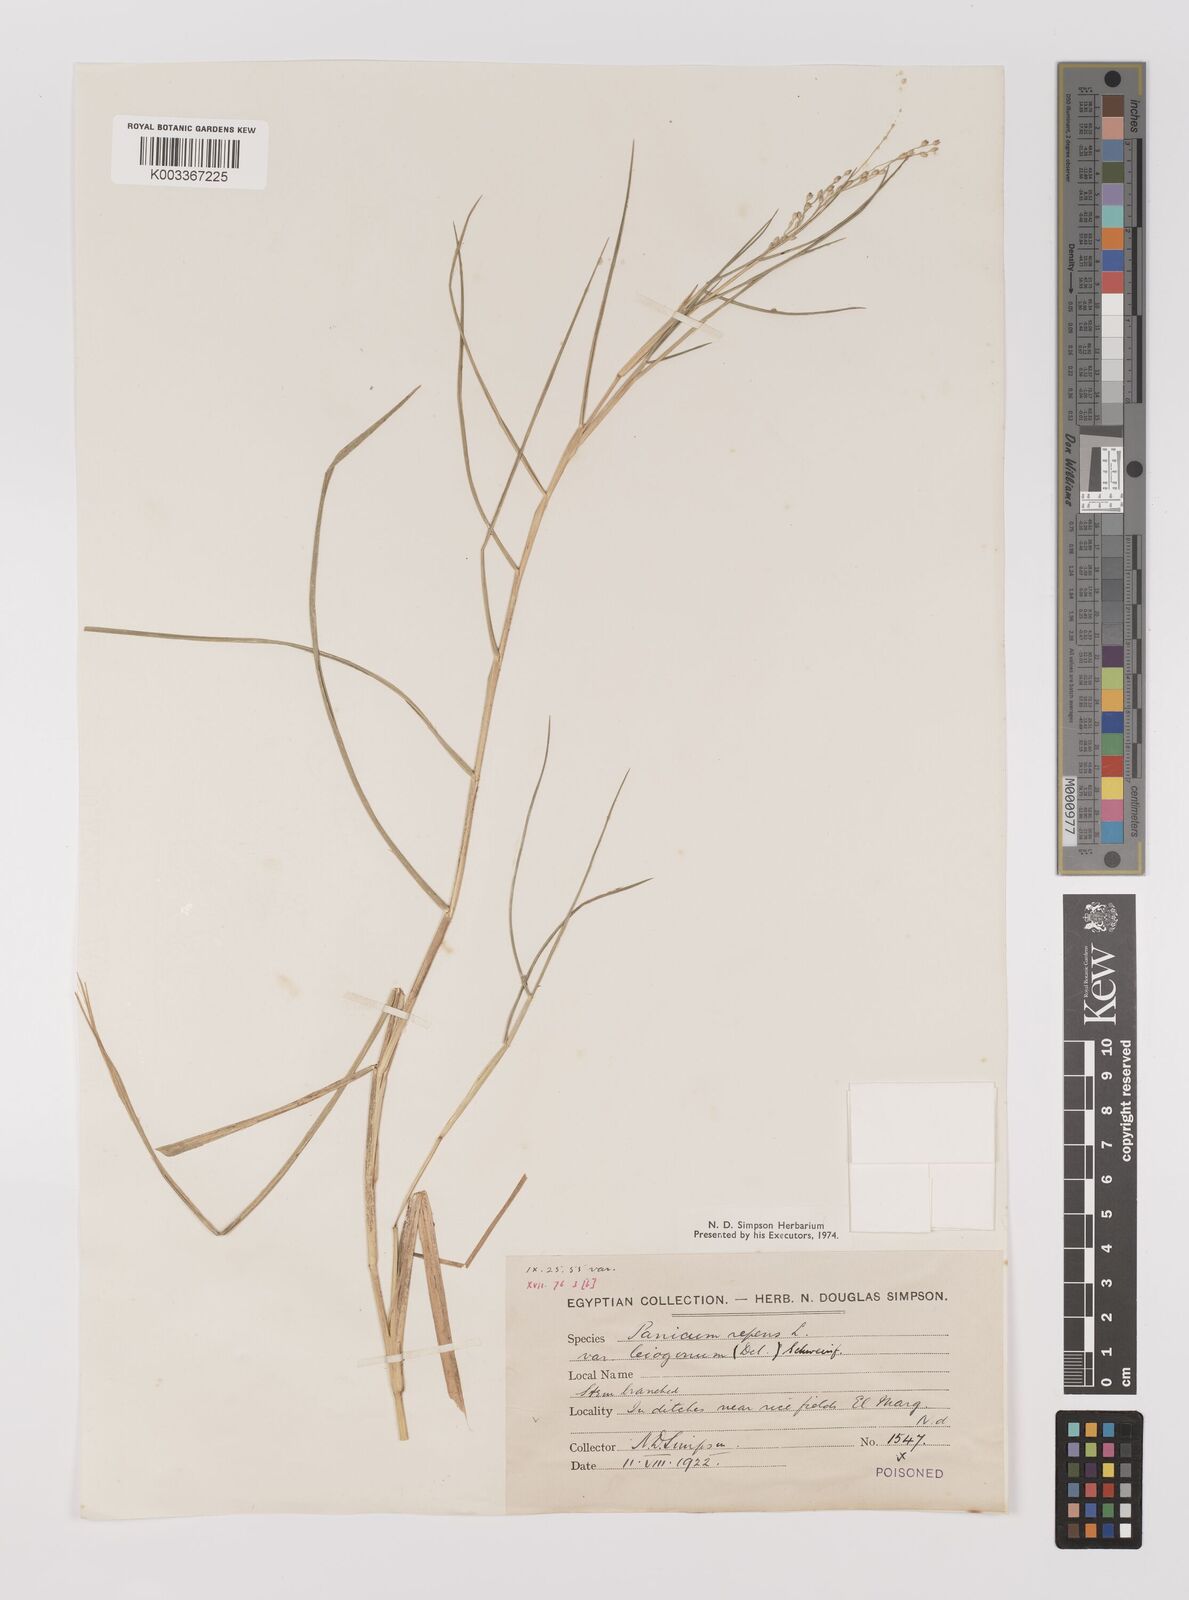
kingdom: Plantae
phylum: Tracheophyta
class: Liliopsida
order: Poales
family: Poaceae
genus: Panicum
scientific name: Panicum repens
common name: Torpedo grass
